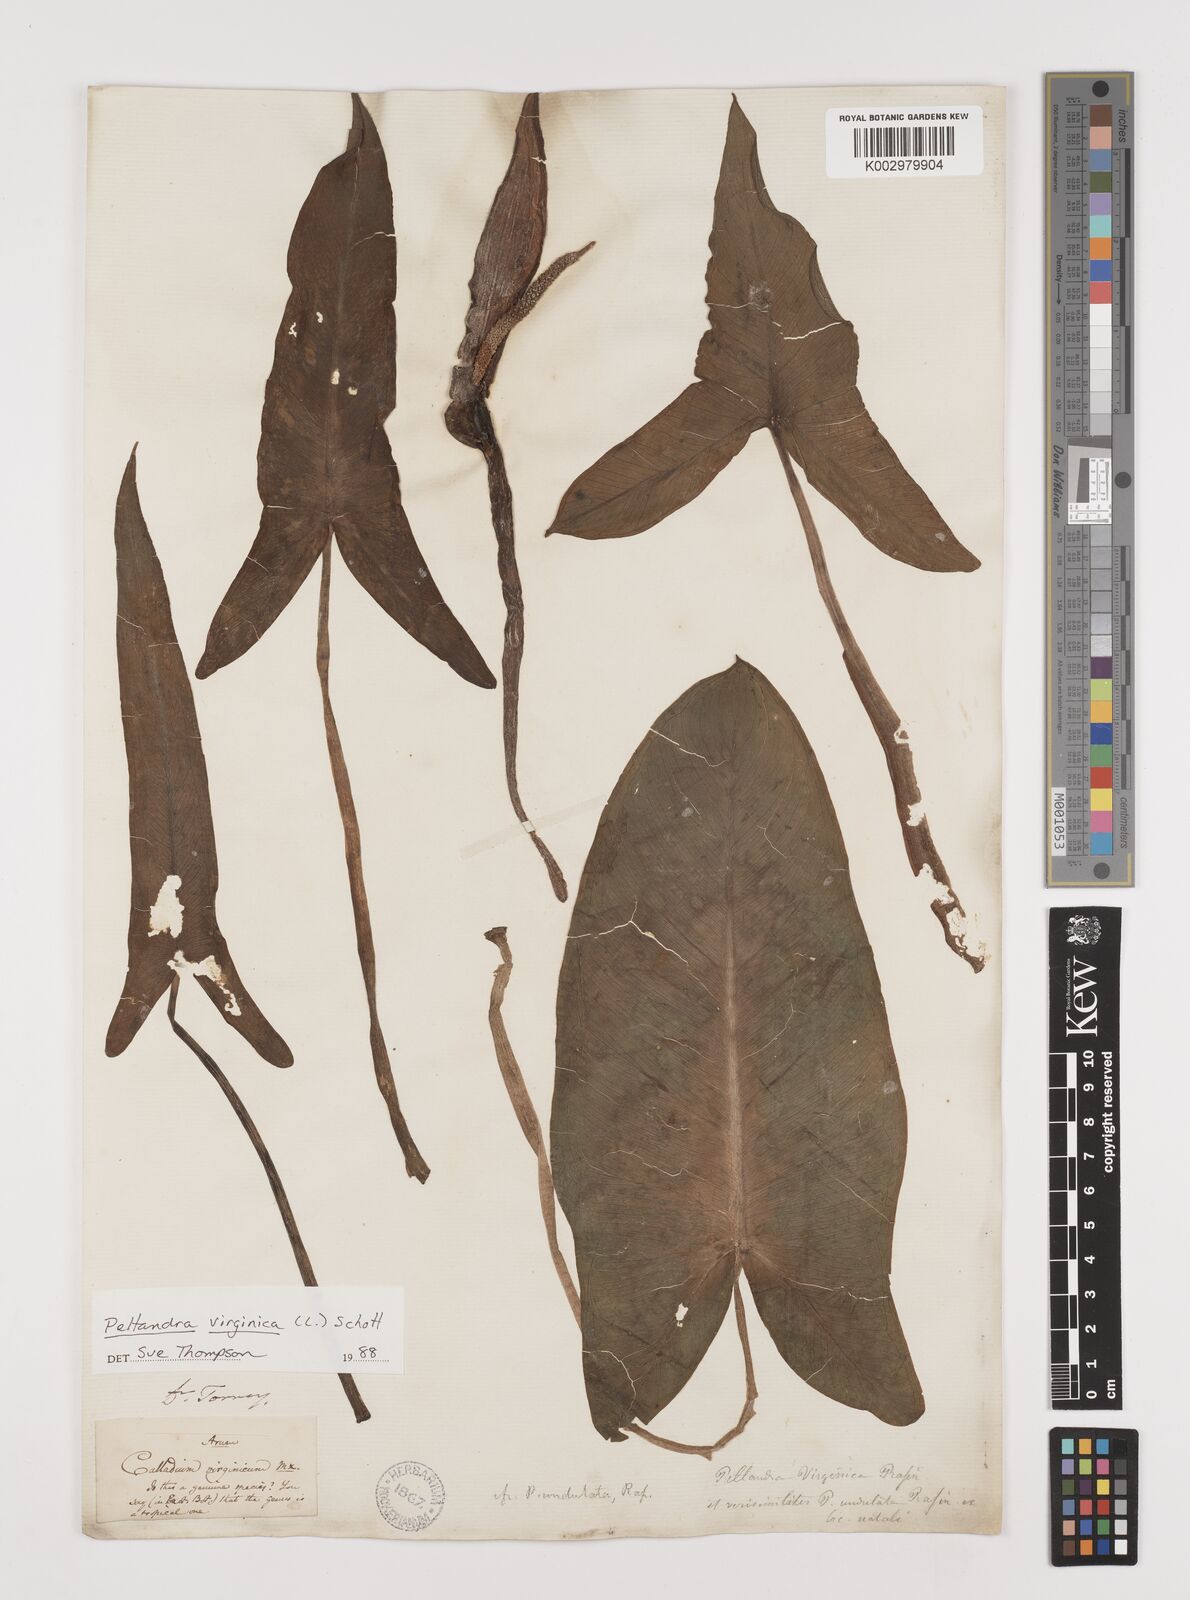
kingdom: Plantae
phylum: Tracheophyta
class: Liliopsida
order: Alismatales
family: Araceae
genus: Peltandra
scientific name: Peltandra virginica
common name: Arrow arum
